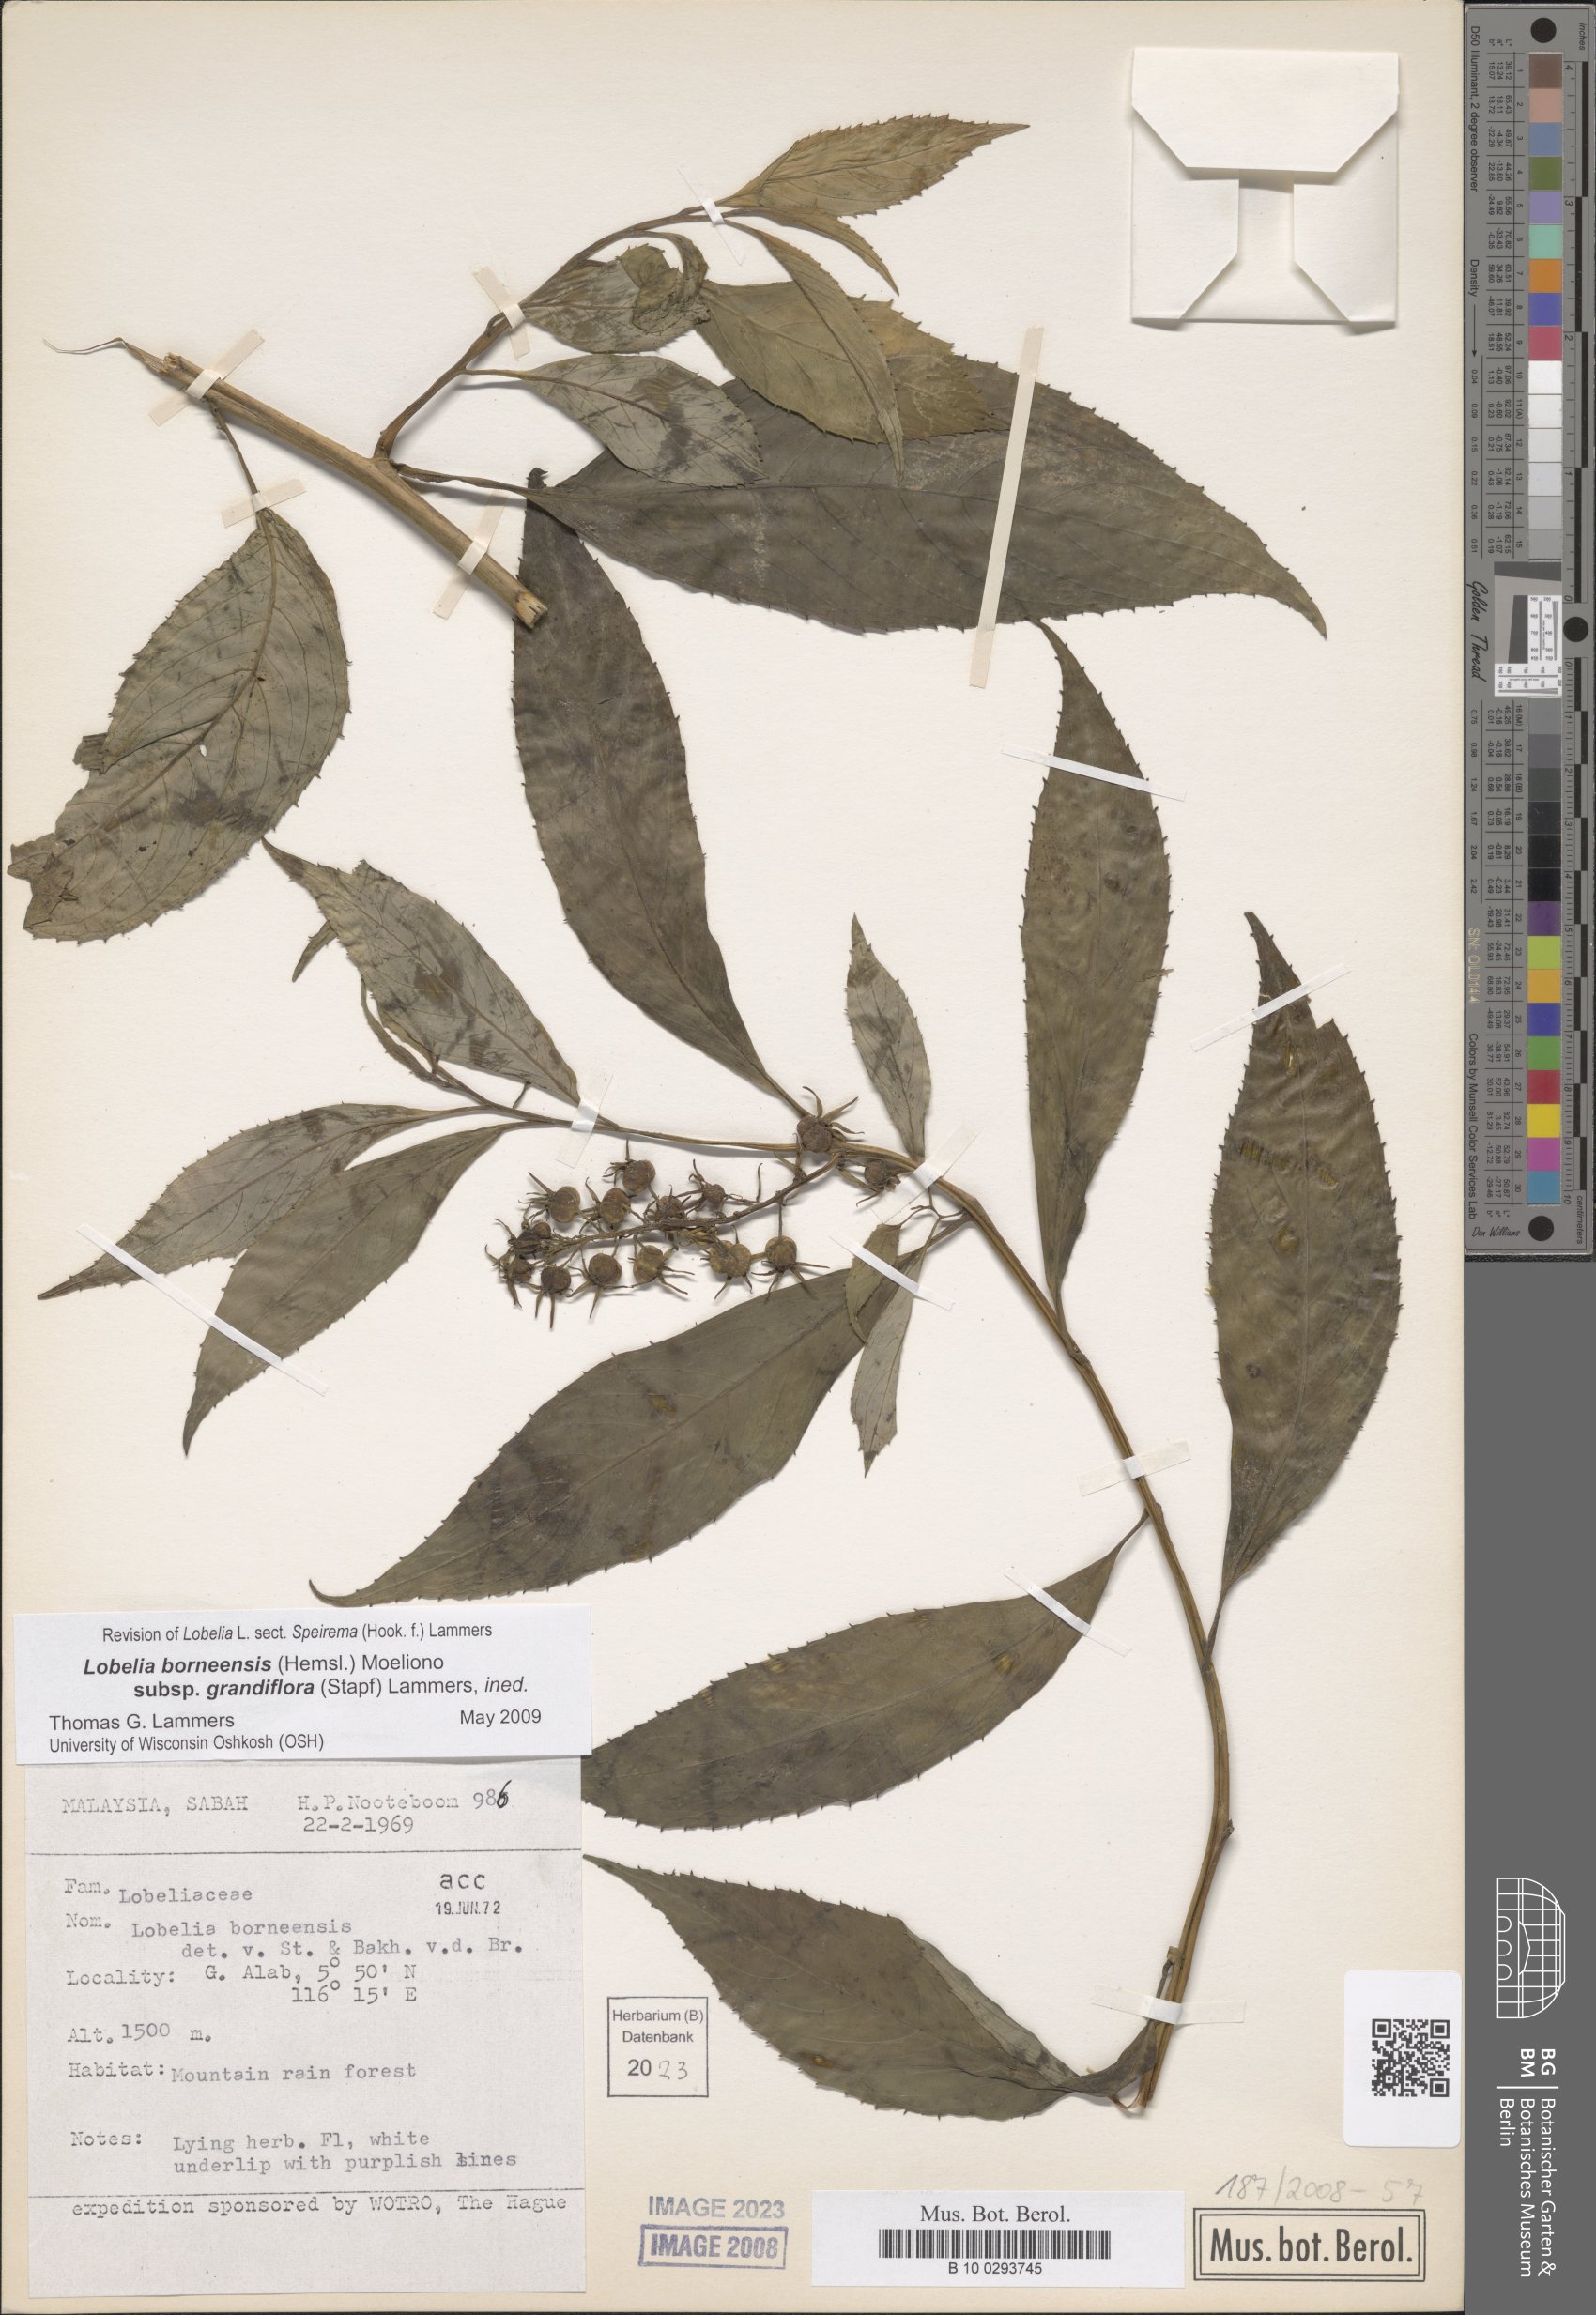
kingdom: Plantae
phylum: Tracheophyta
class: Magnoliopsida
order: Asterales
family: Campanulaceae
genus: Lobelia
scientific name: Lobelia borneensis
